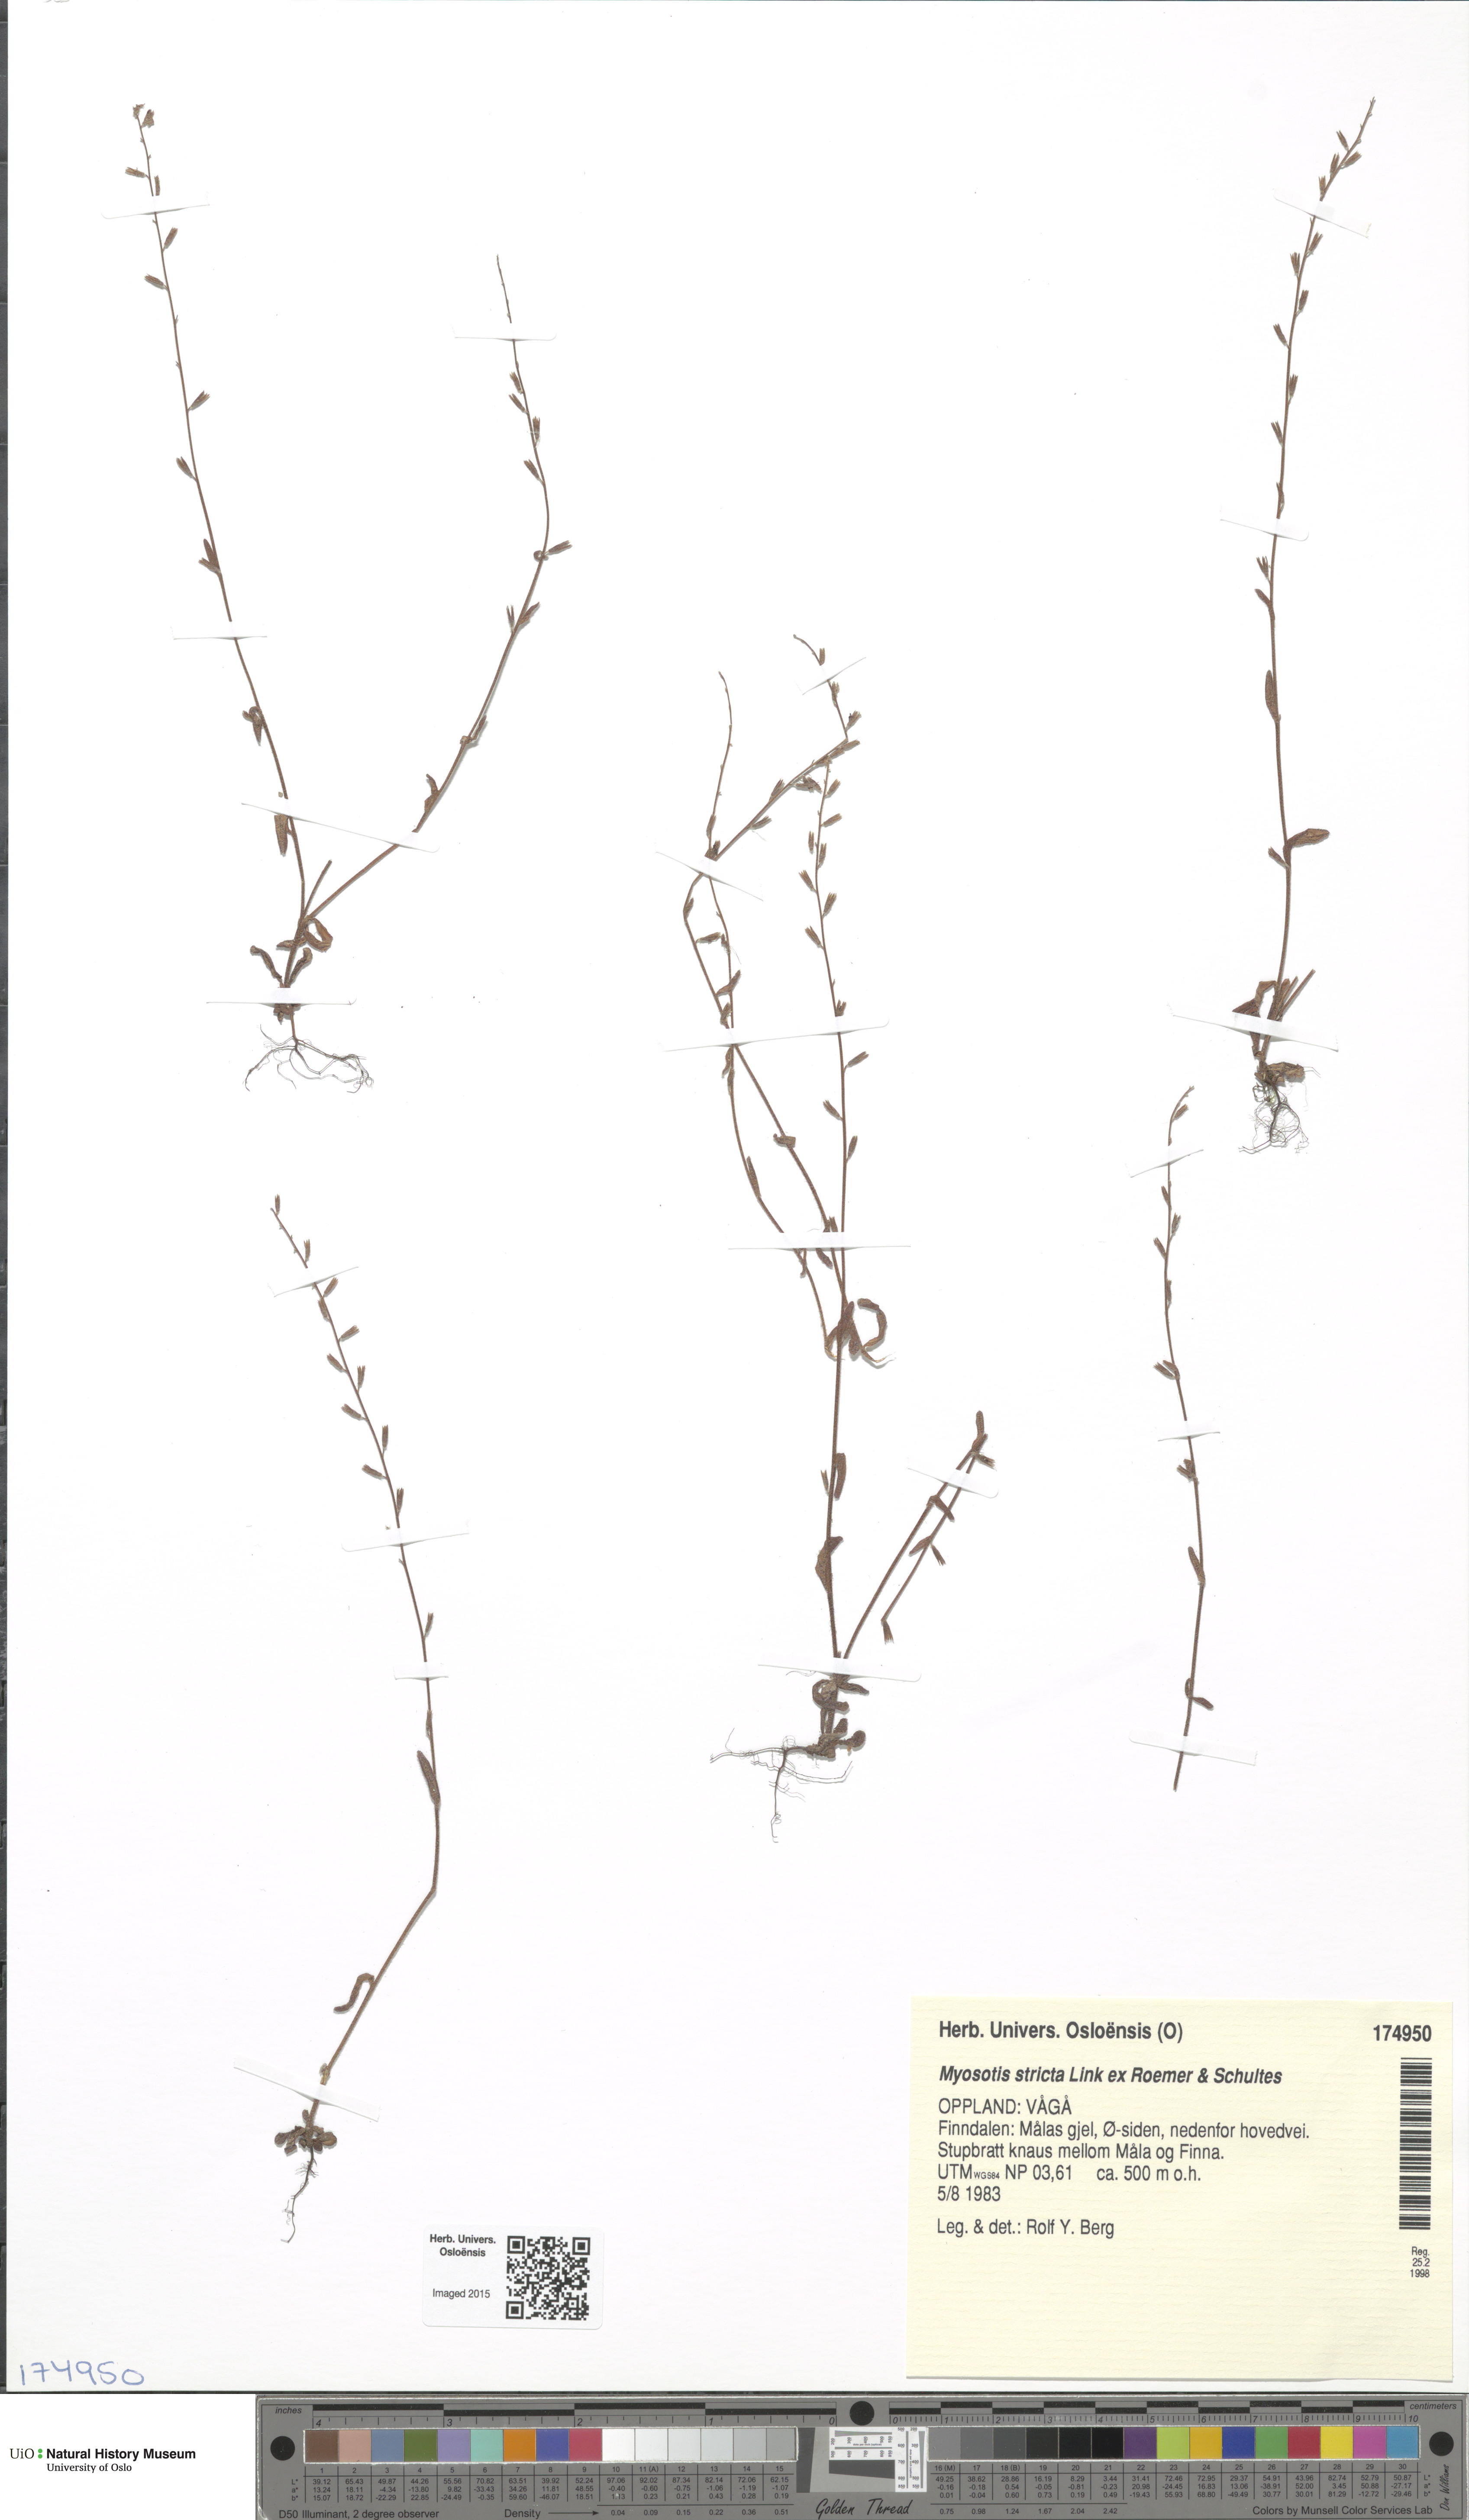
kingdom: Plantae
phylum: Tracheophyta
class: Magnoliopsida
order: Boraginales
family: Boraginaceae
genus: Myosotis
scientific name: Myosotis stricta
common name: Strict forget-me-not
